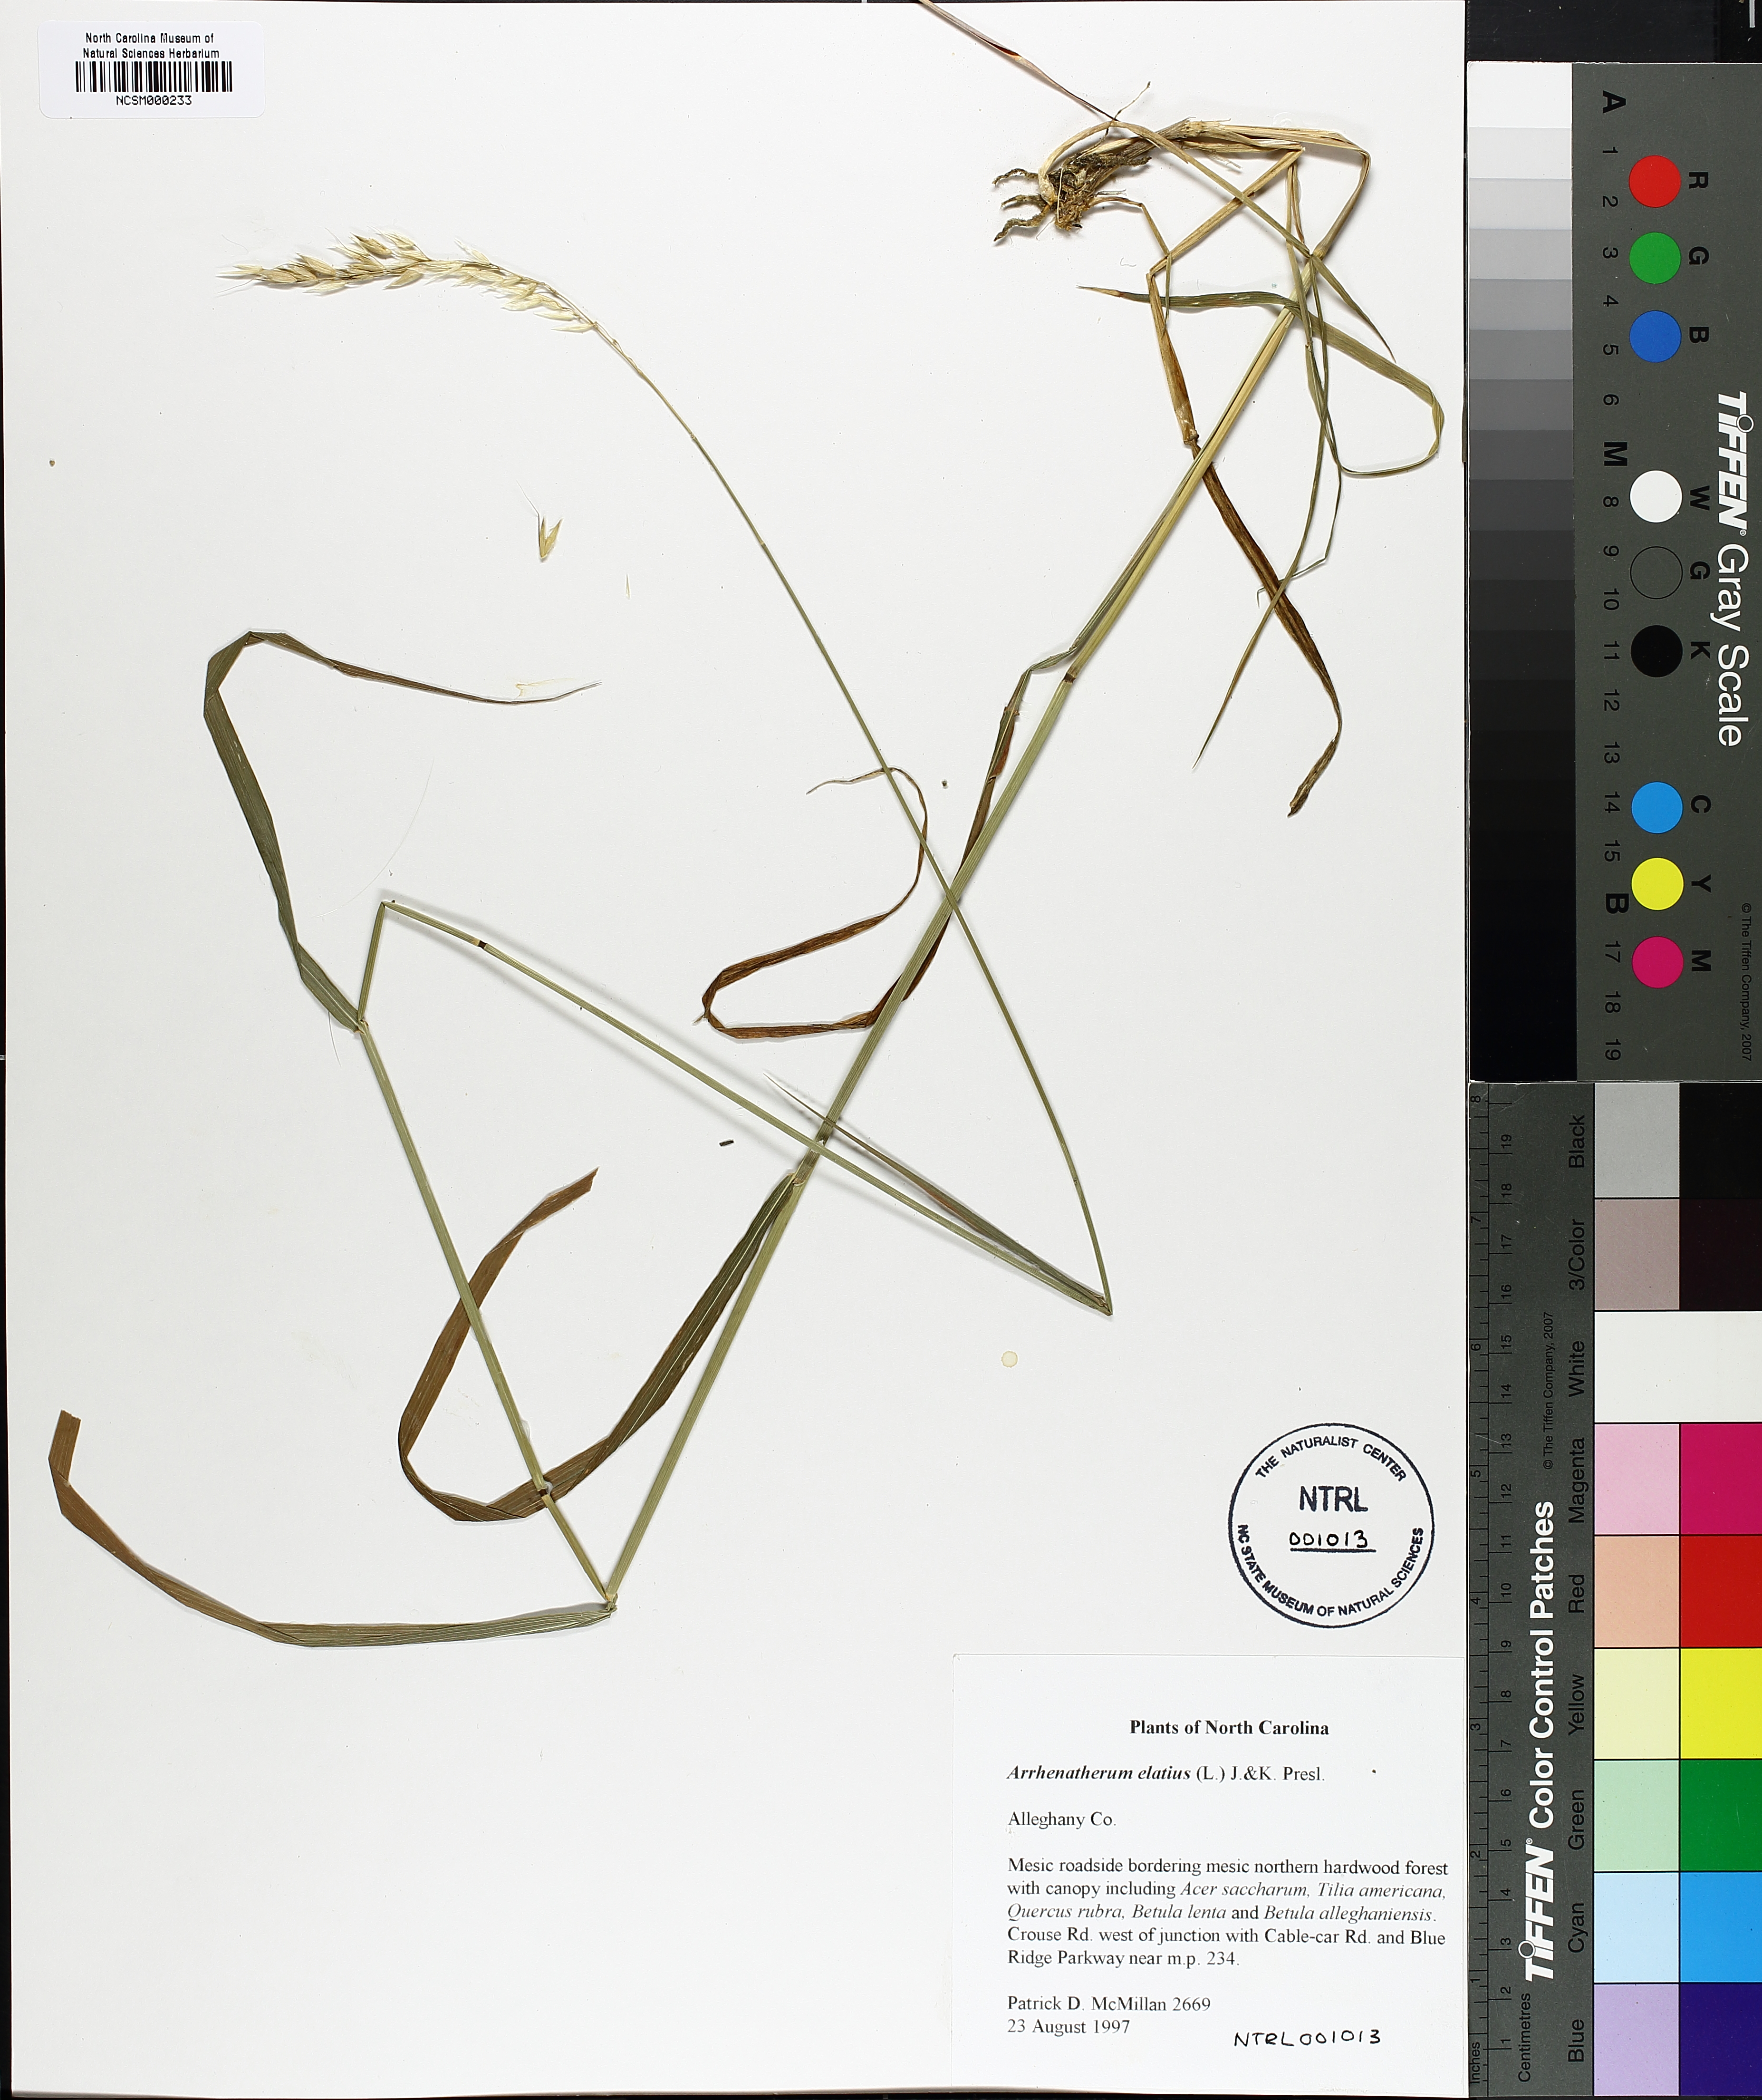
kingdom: Plantae
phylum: Tracheophyta
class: Liliopsida
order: Poales
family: Poaceae
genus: Arrhenatherum
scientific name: Arrhenatherum elatius
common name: Tall oatgrass
